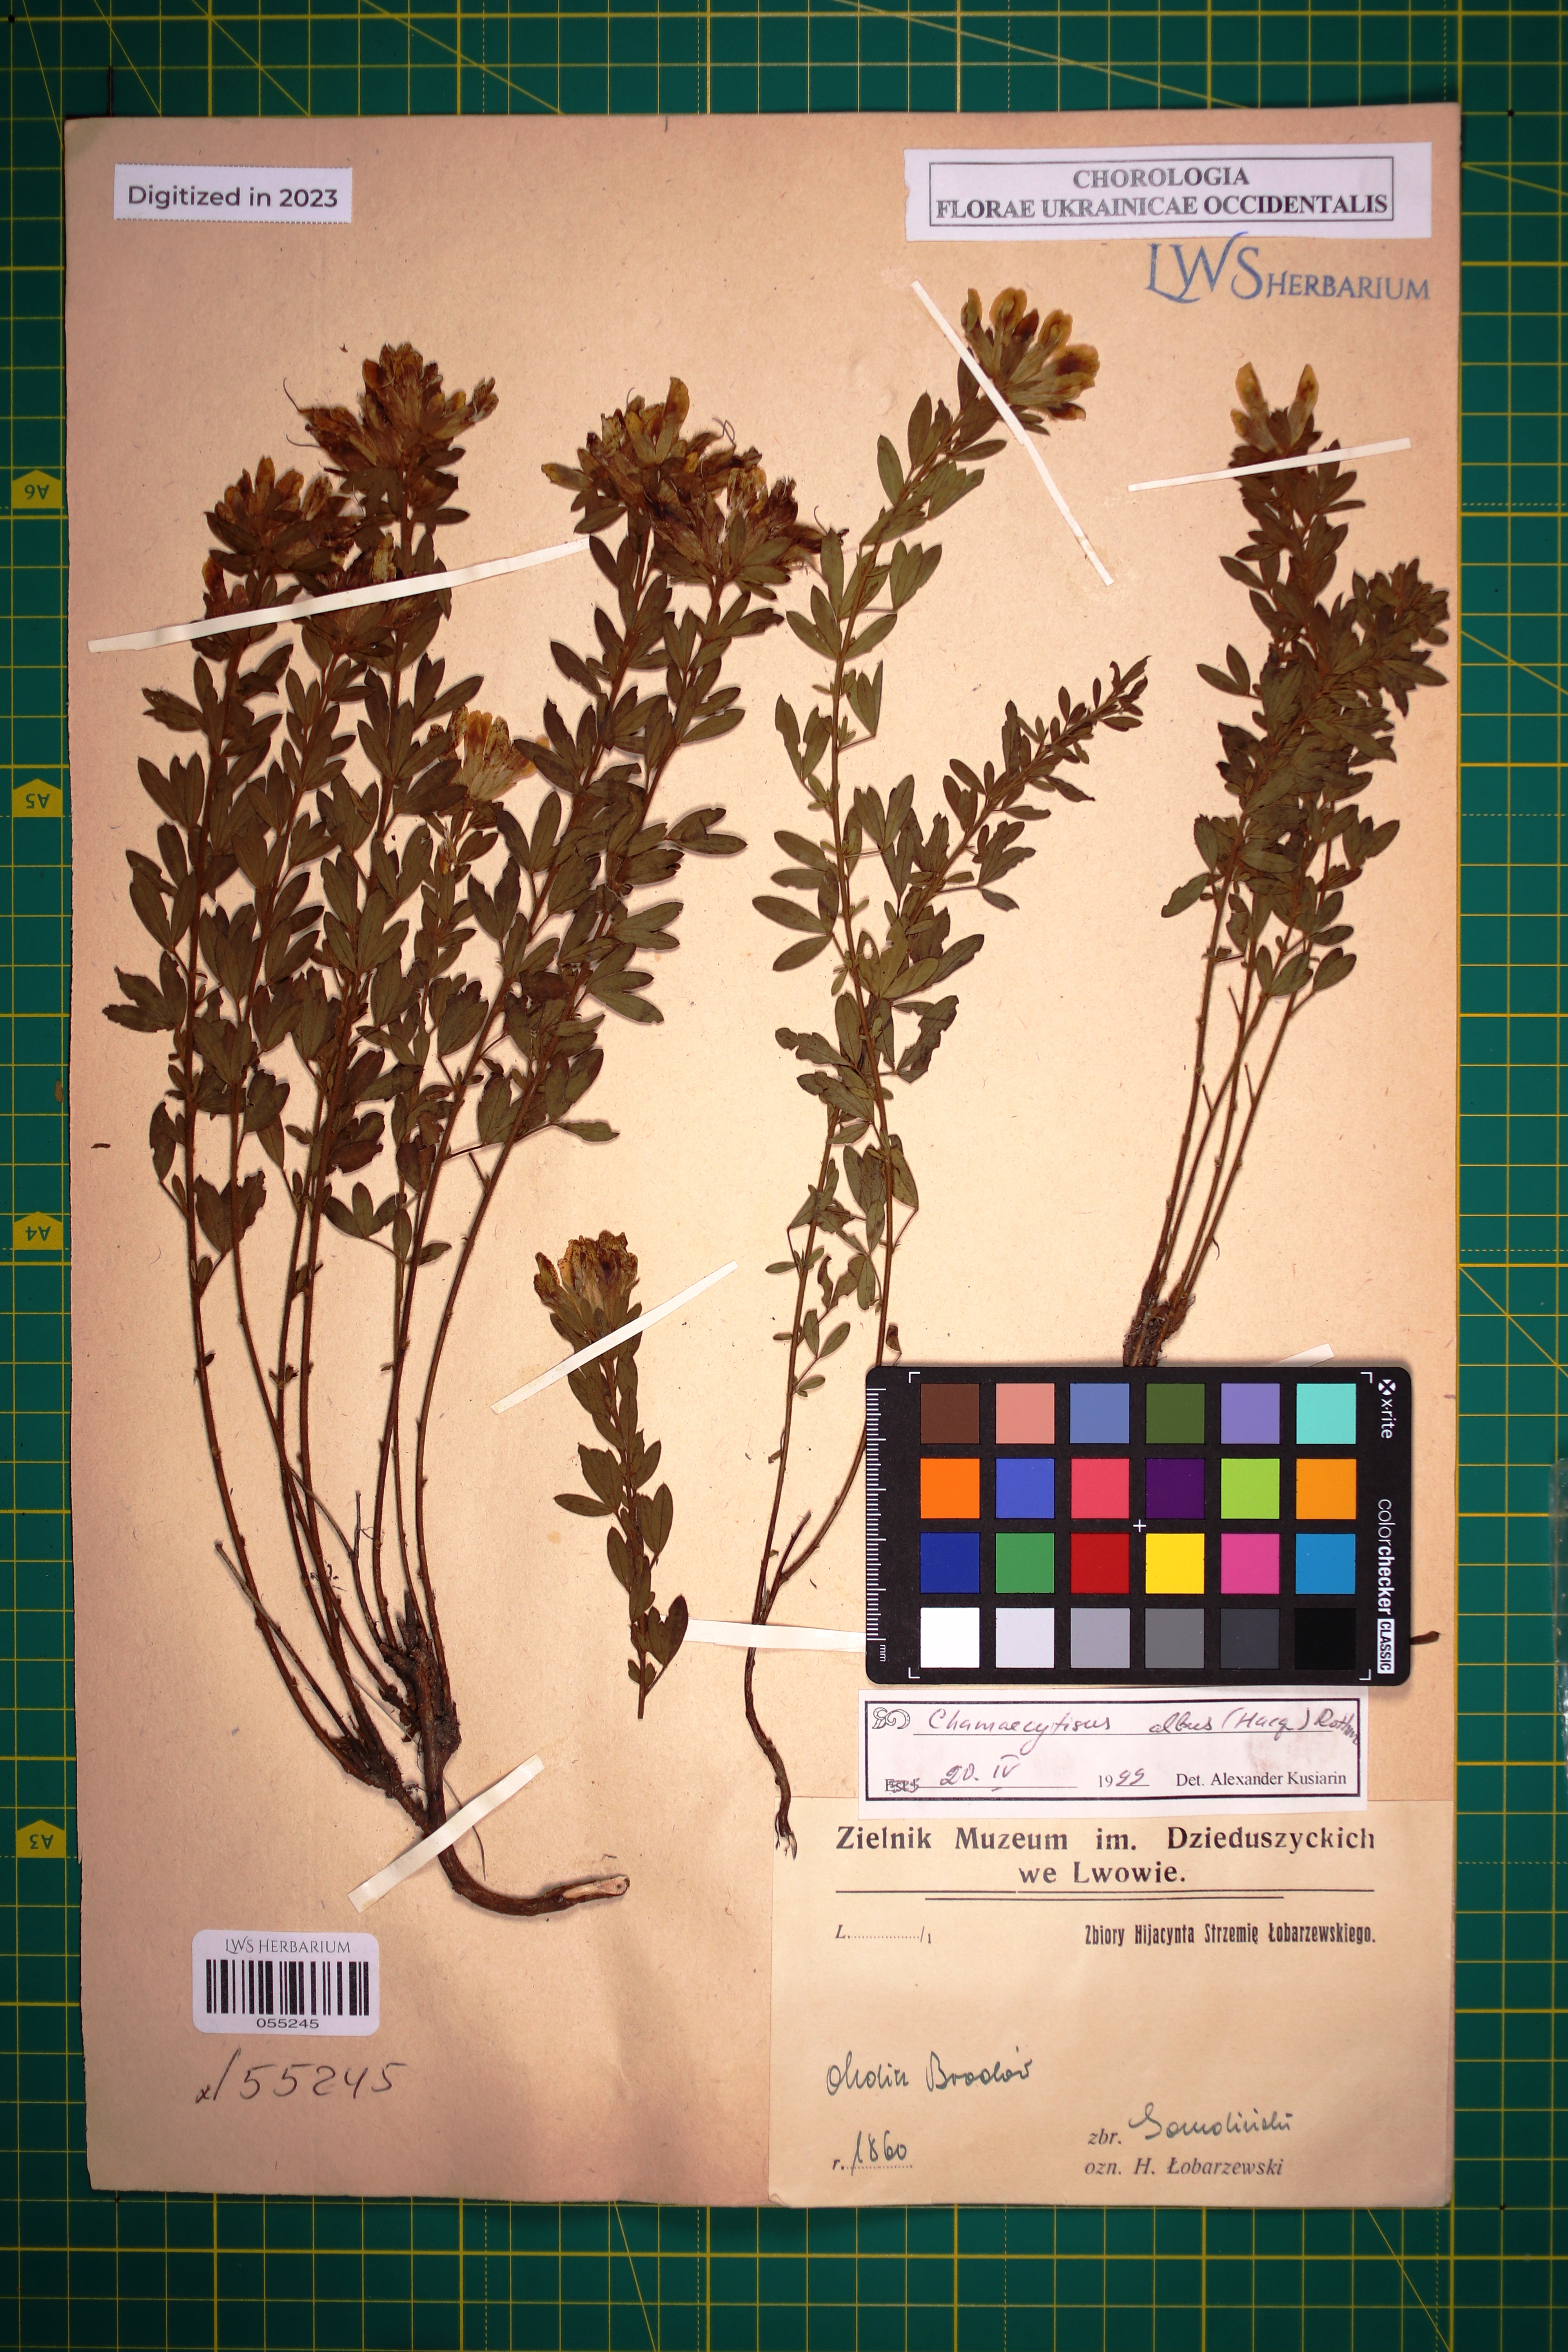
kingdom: Plantae
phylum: Tracheophyta
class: Magnoliopsida
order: Fabales
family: Fabaceae
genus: Chamaecytisus
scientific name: Chamaecytisus albus
